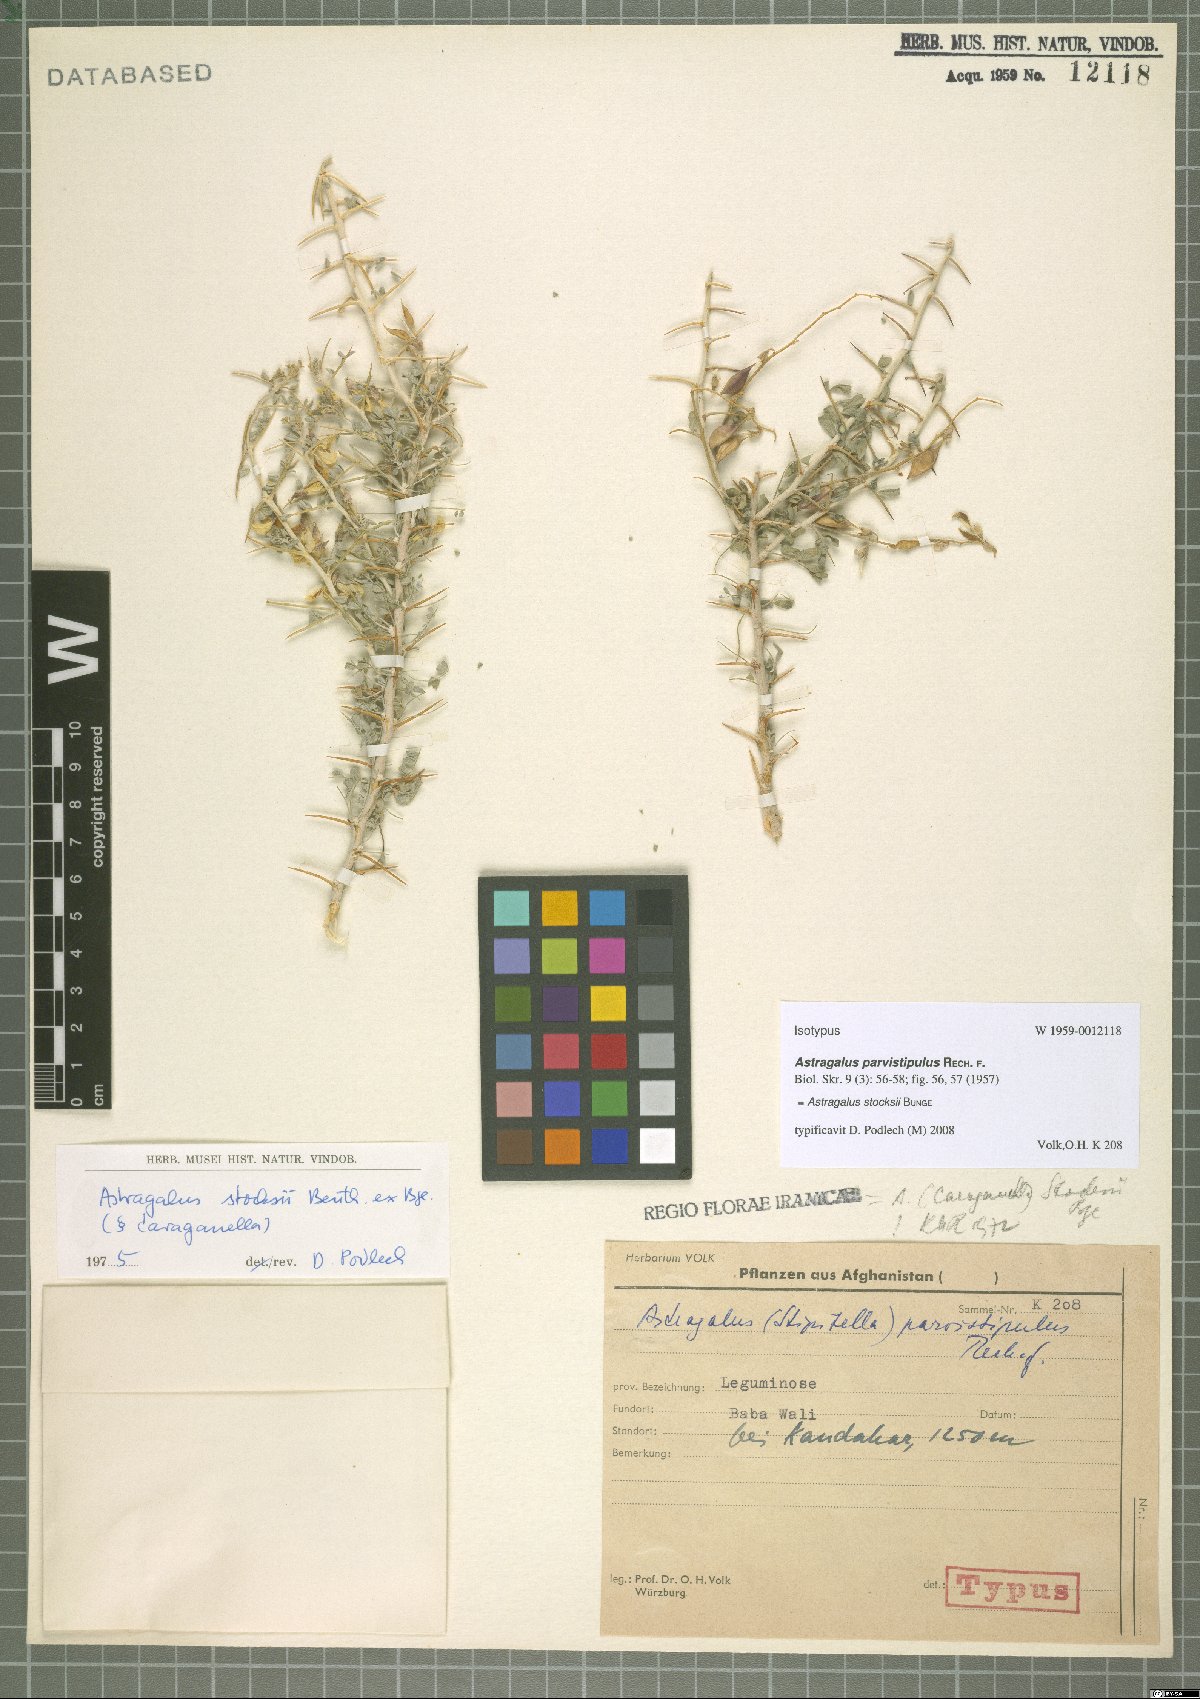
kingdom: Plantae
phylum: Tracheophyta
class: Magnoliopsida
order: Fabales
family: Fabaceae
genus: Astragalus
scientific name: Astragalus stocksii
